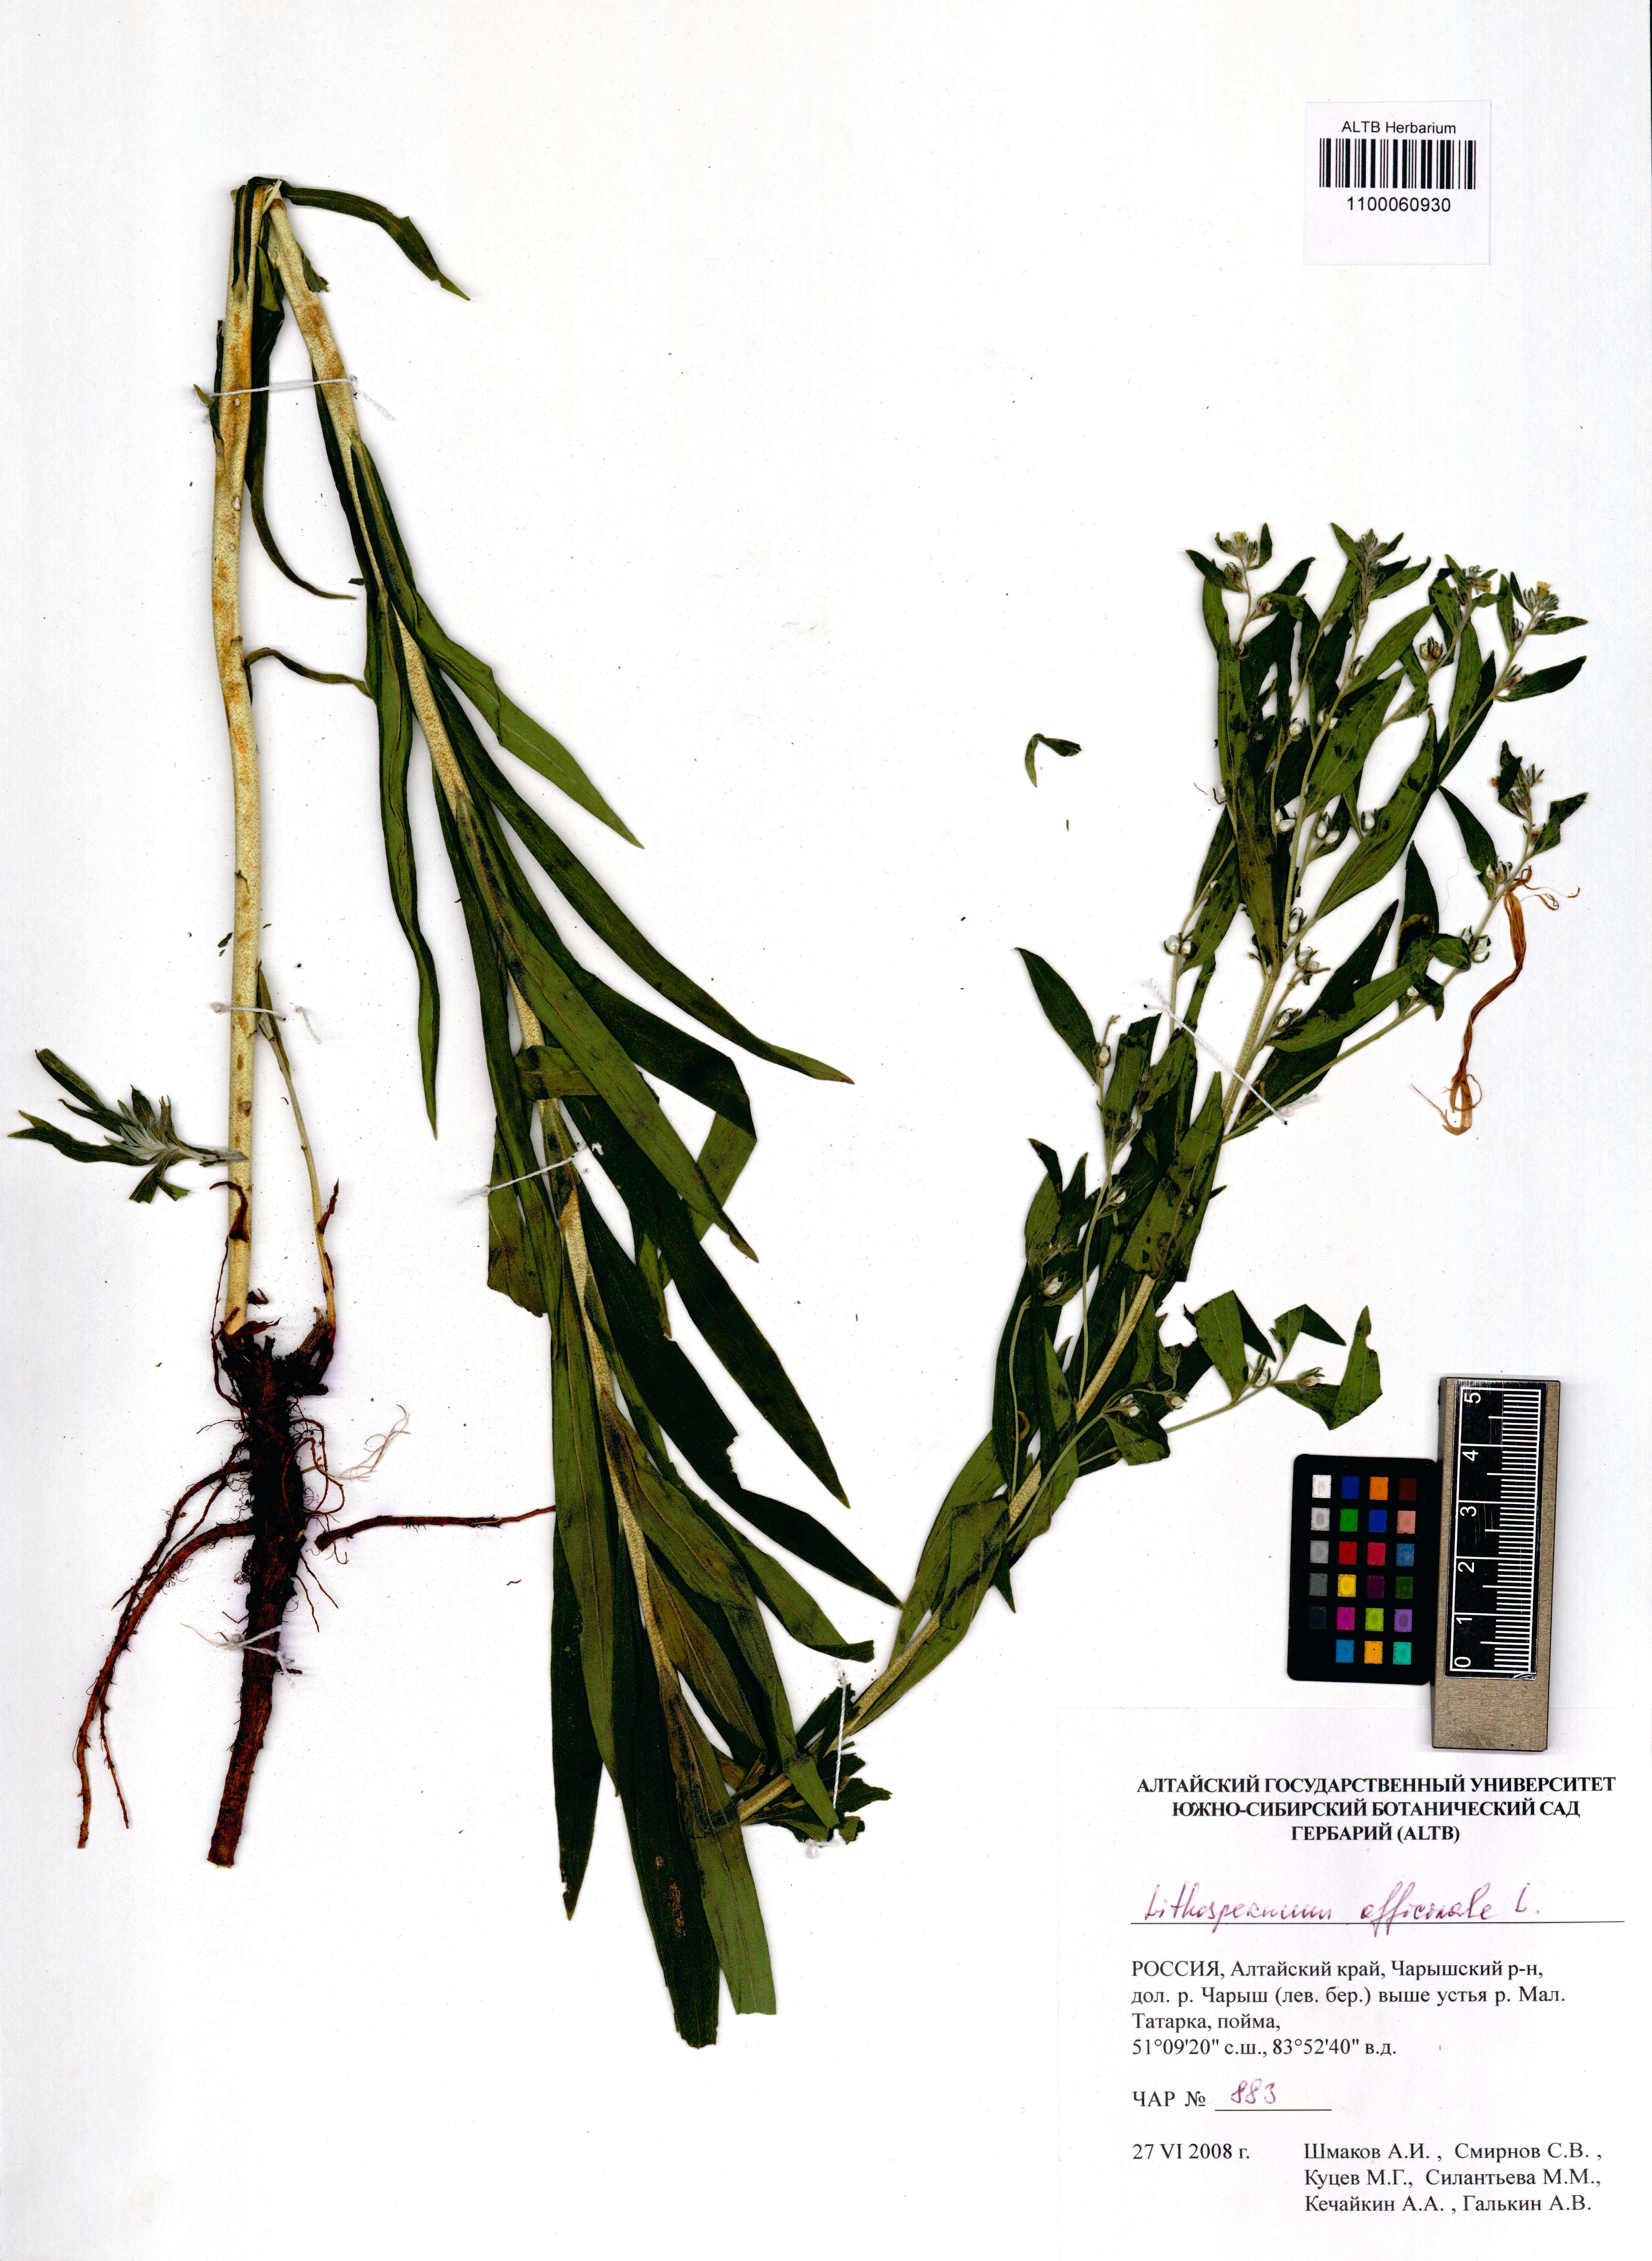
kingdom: Plantae
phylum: Tracheophyta
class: Magnoliopsida
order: Boraginales
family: Boraginaceae
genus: Lithospermum
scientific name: Lithospermum officinale
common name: Common gromwell
